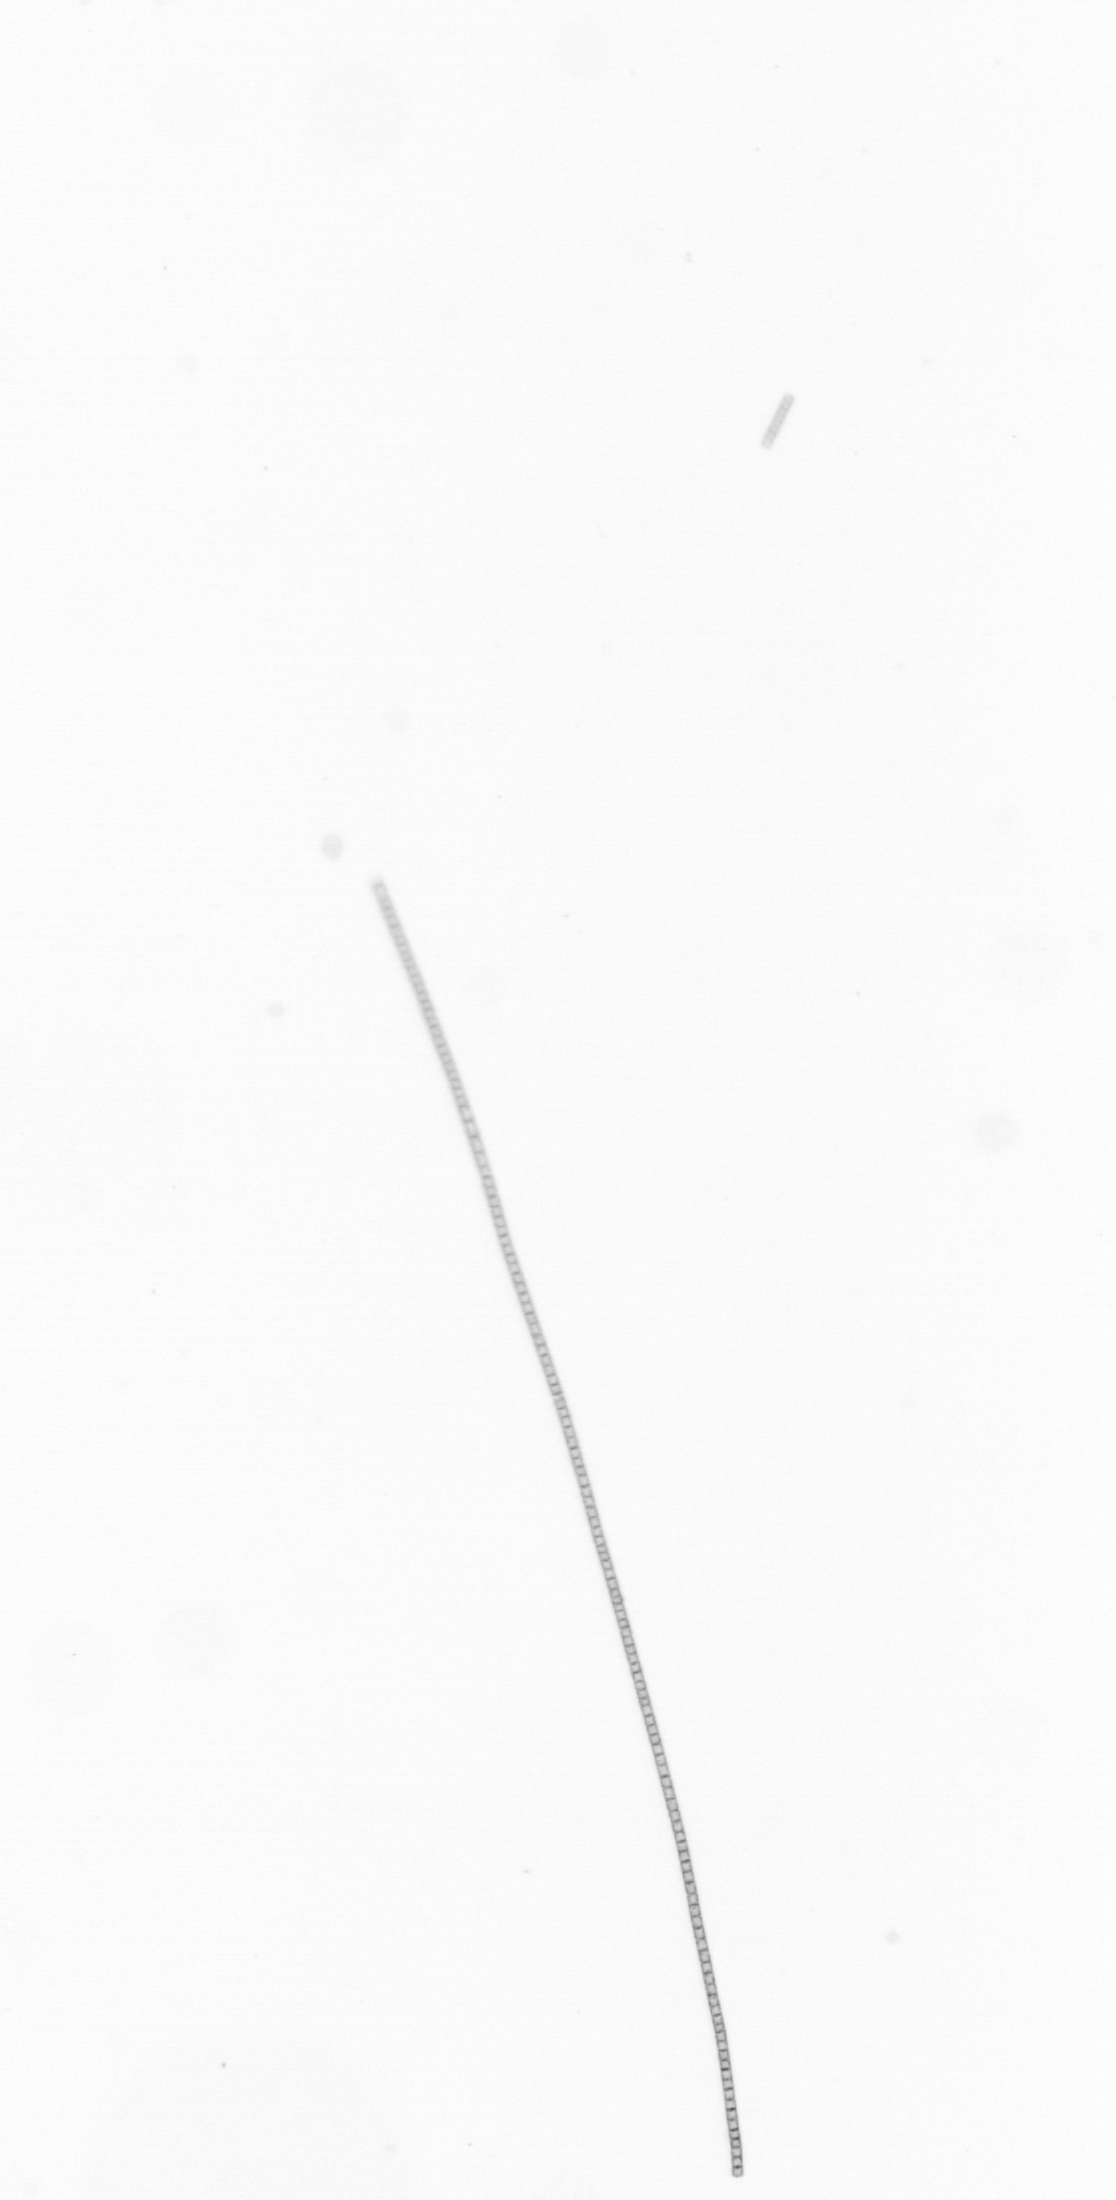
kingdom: Chromista
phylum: Ochrophyta
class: Bacillariophyceae
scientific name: Bacillariophyceae
